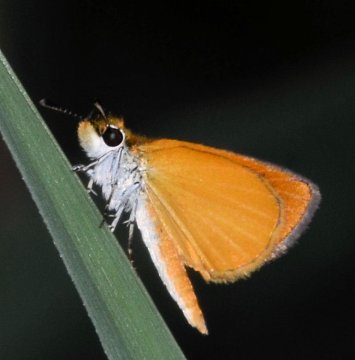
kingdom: Animalia
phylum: Arthropoda
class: Insecta
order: Lepidoptera
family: Hesperiidae
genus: Ancyloxypha
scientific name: Ancyloxypha numitor
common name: Least Skipper
